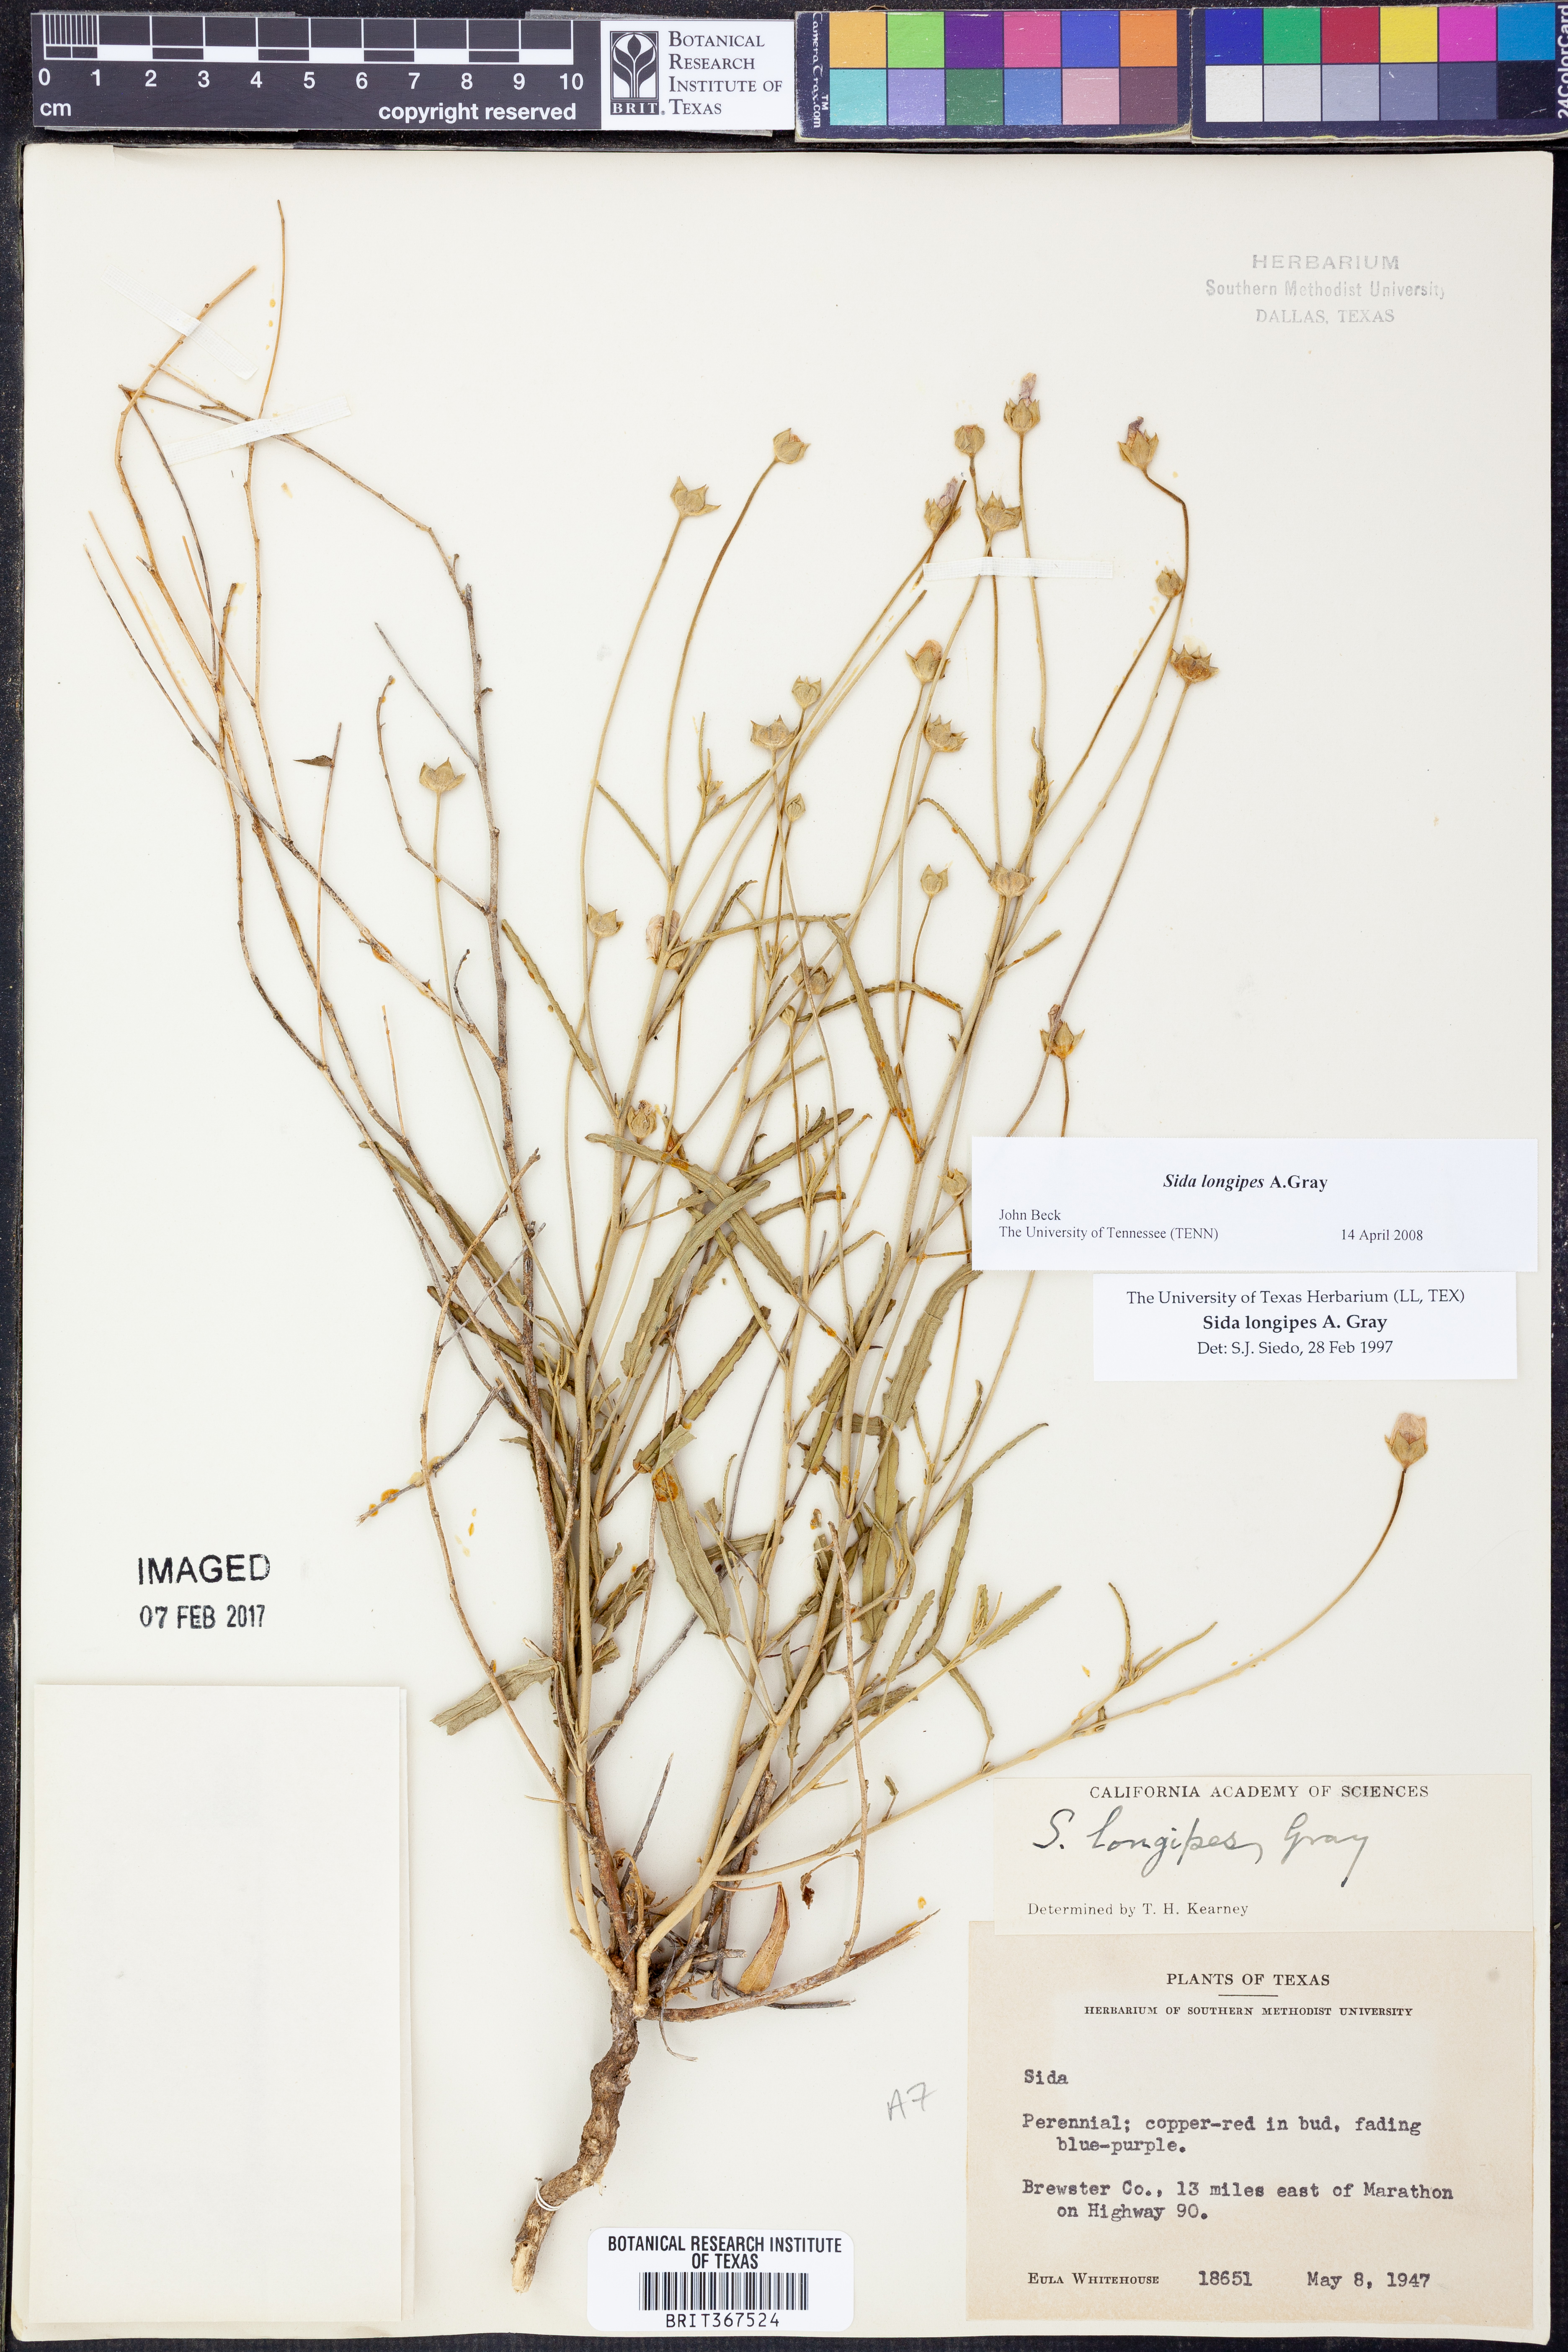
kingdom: Plantae
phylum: Tracheophyta
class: Magnoliopsida
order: Malvales
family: Malvaceae
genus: Sida
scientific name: Sida lancifolia
